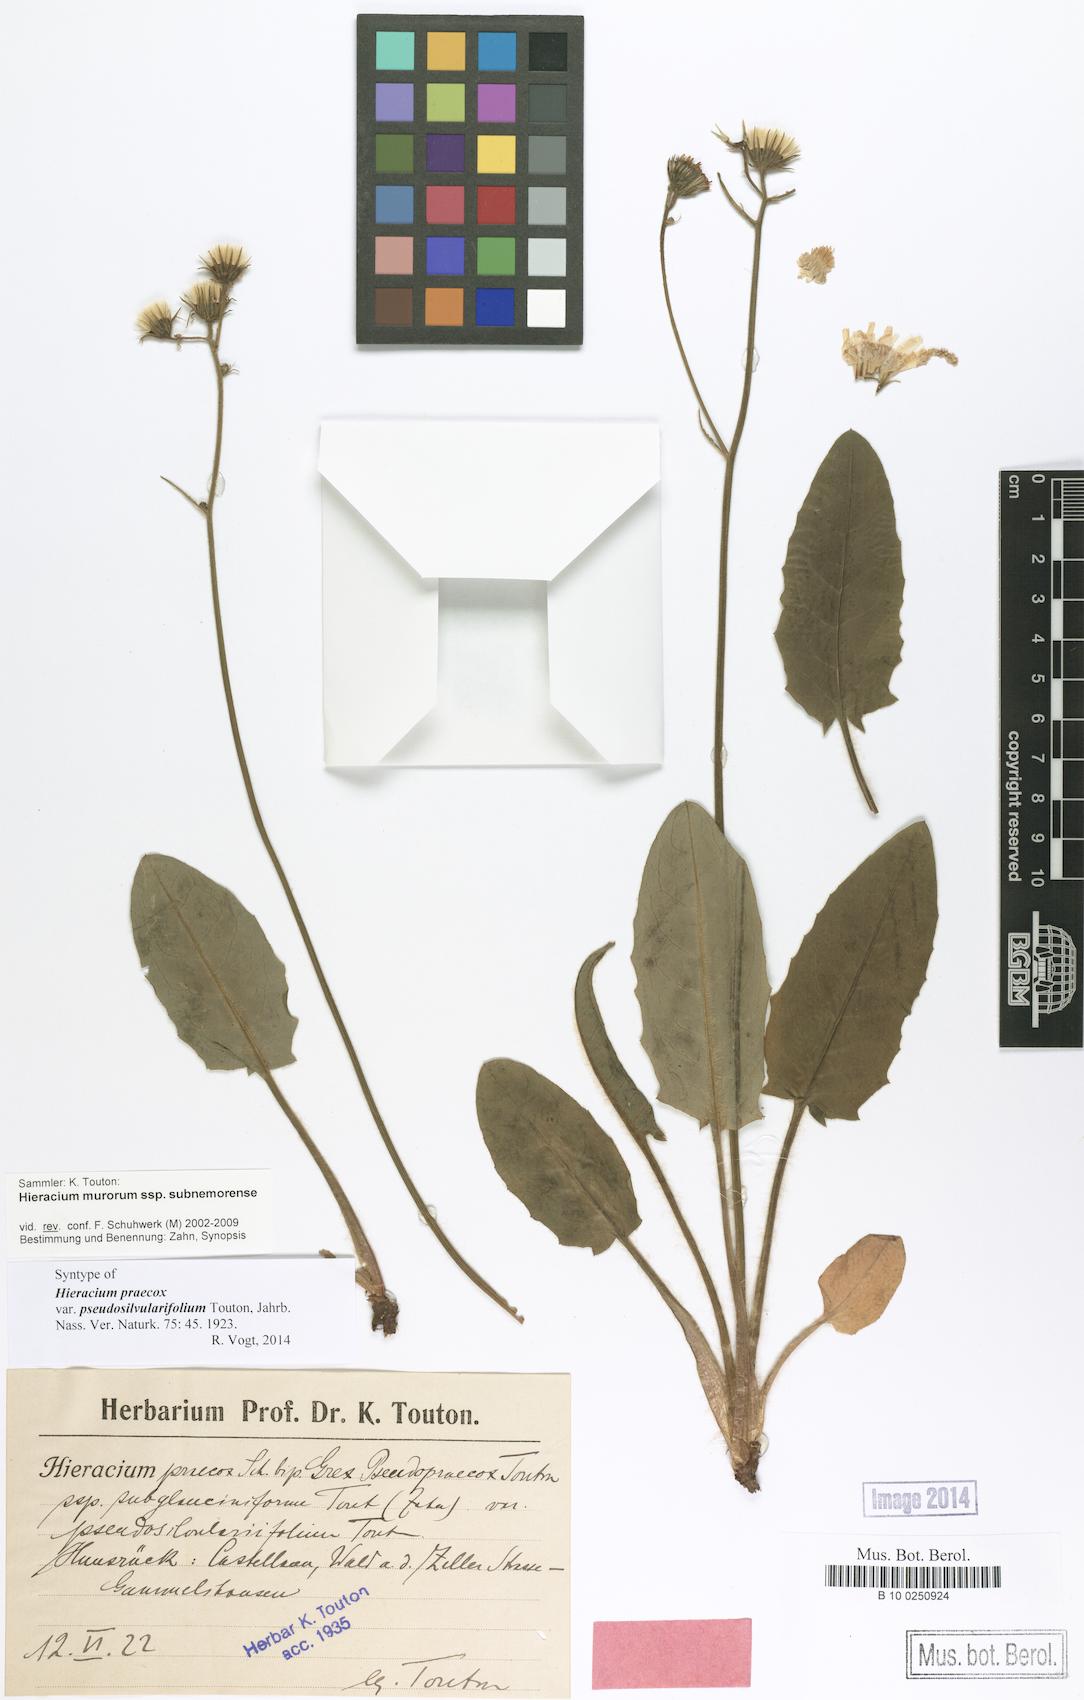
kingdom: Plantae
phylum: Tracheophyta
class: Magnoliopsida
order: Asterales
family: Asteraceae
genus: Hieracium
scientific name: Hieracium praecox
